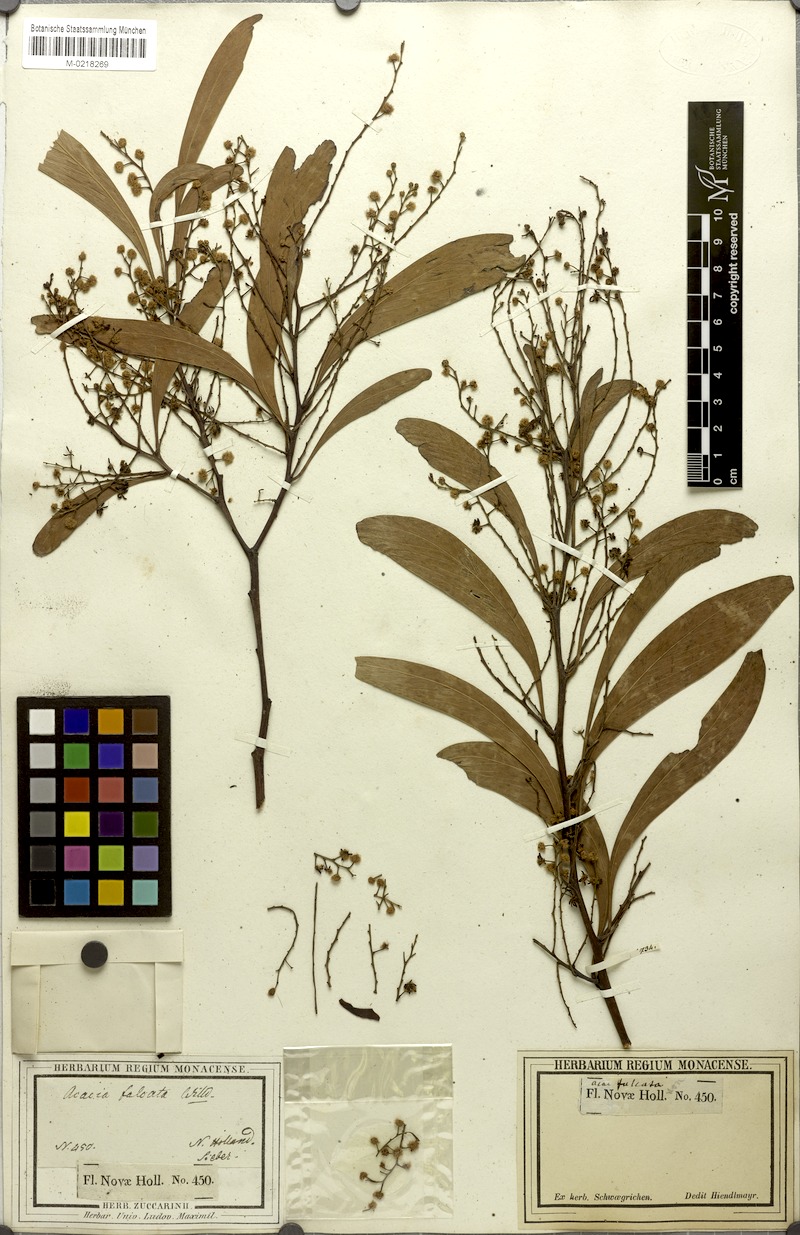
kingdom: Plantae
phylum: Tracheophyta
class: Magnoliopsida
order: Fabales
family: Fabaceae
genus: Acacia
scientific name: Acacia falcata
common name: Burra acacia
